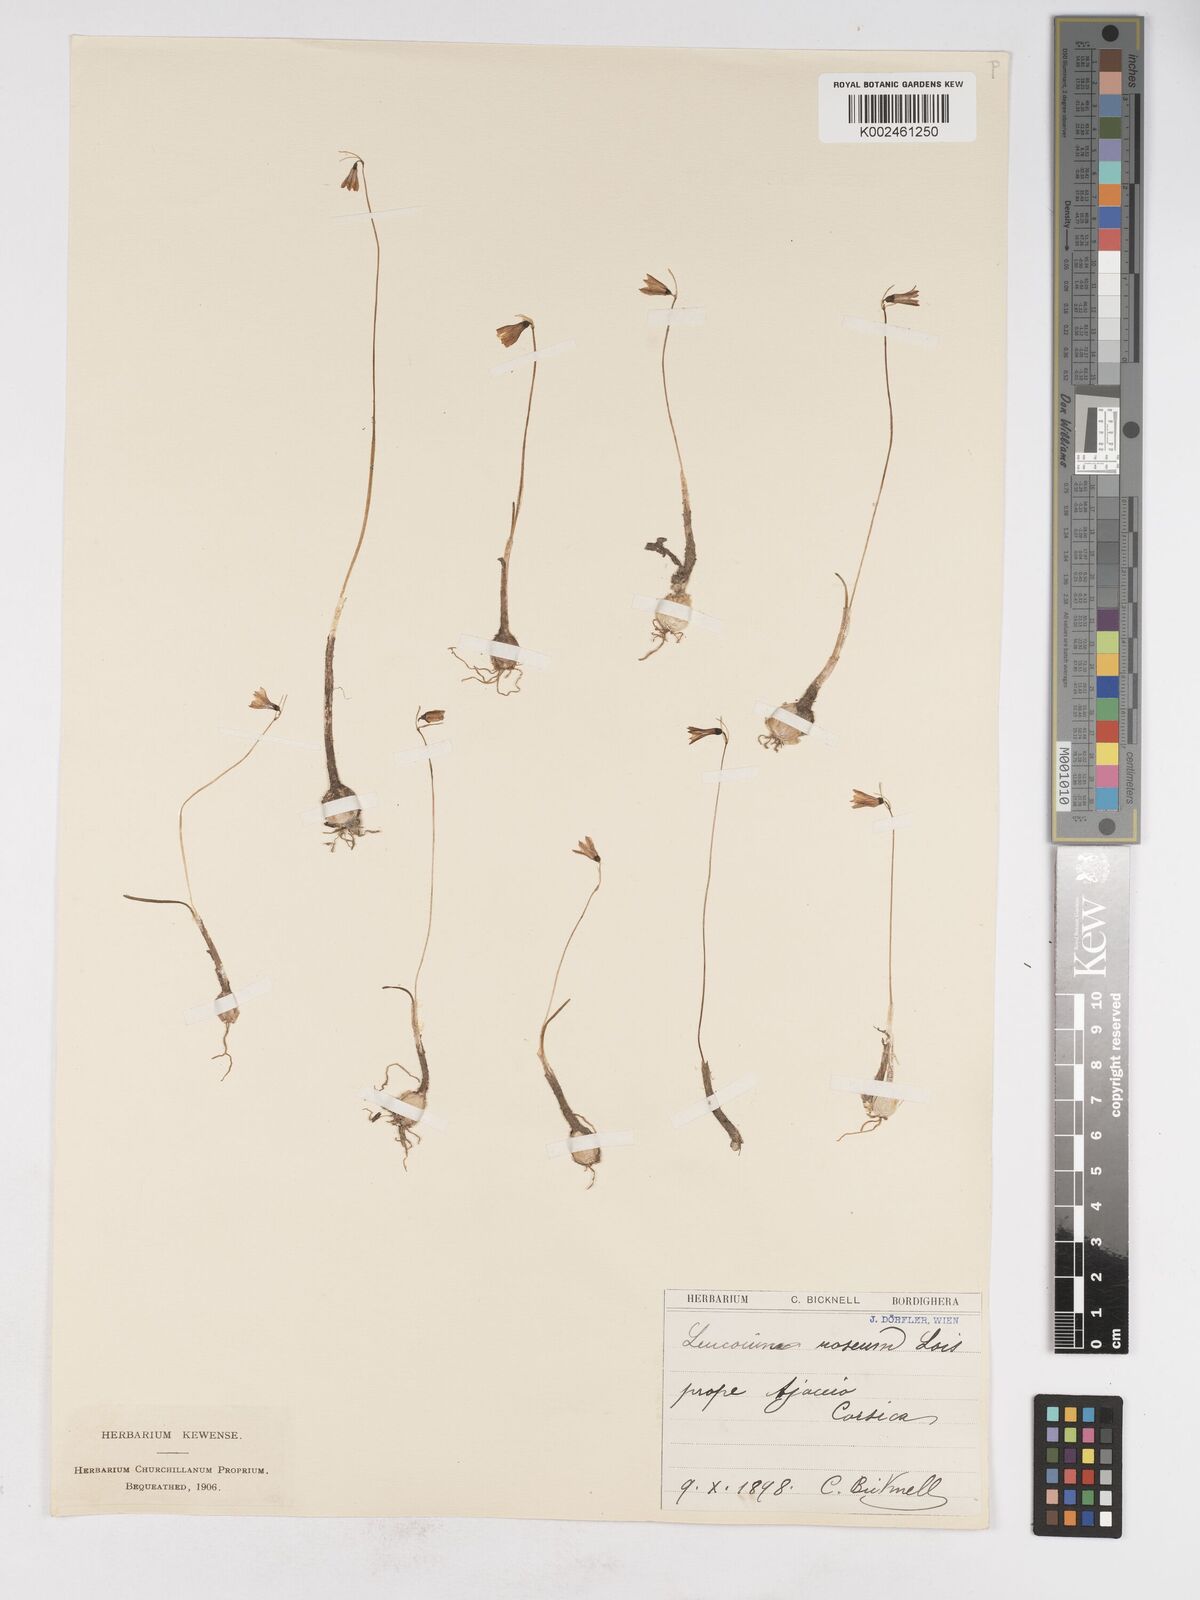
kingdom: Plantae
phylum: Tracheophyta
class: Liliopsida
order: Asparagales
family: Amaryllidaceae
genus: Acis
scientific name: Acis rosea
